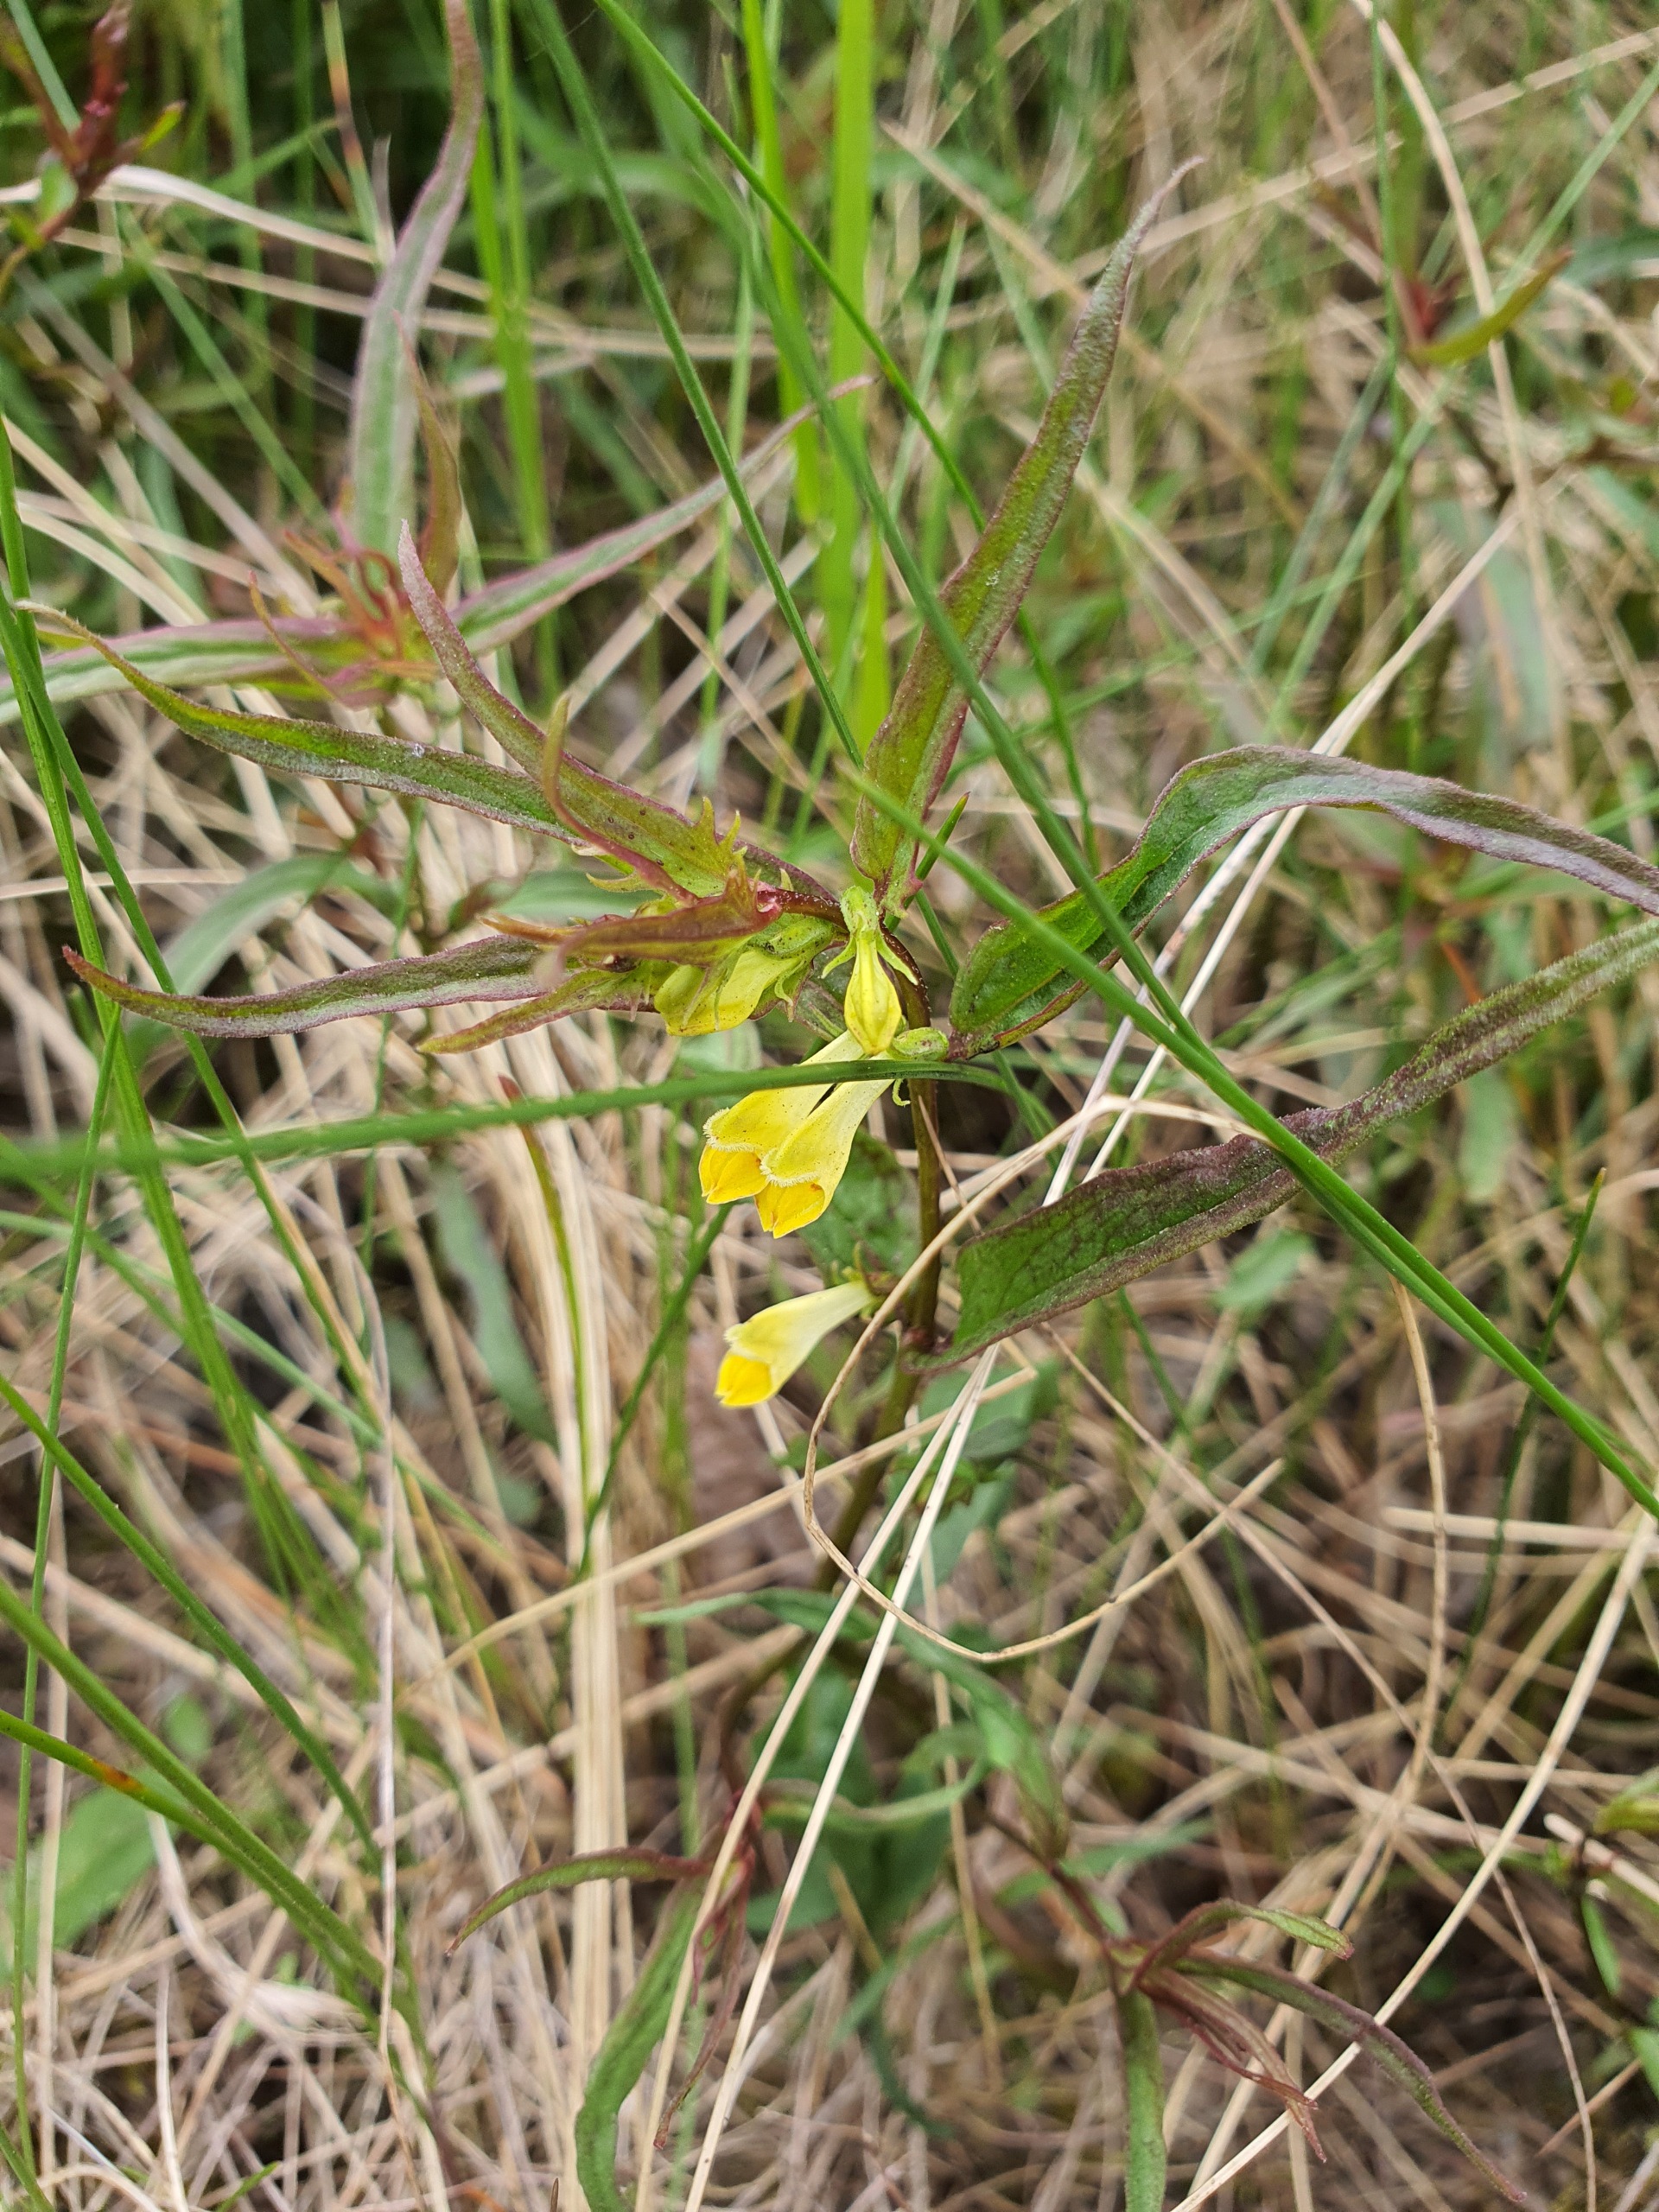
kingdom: Plantae
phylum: Tracheophyta
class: Magnoliopsida
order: Lamiales
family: Orobanchaceae
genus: Melampyrum
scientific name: Melampyrum pratense
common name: Almindelig kohvede
